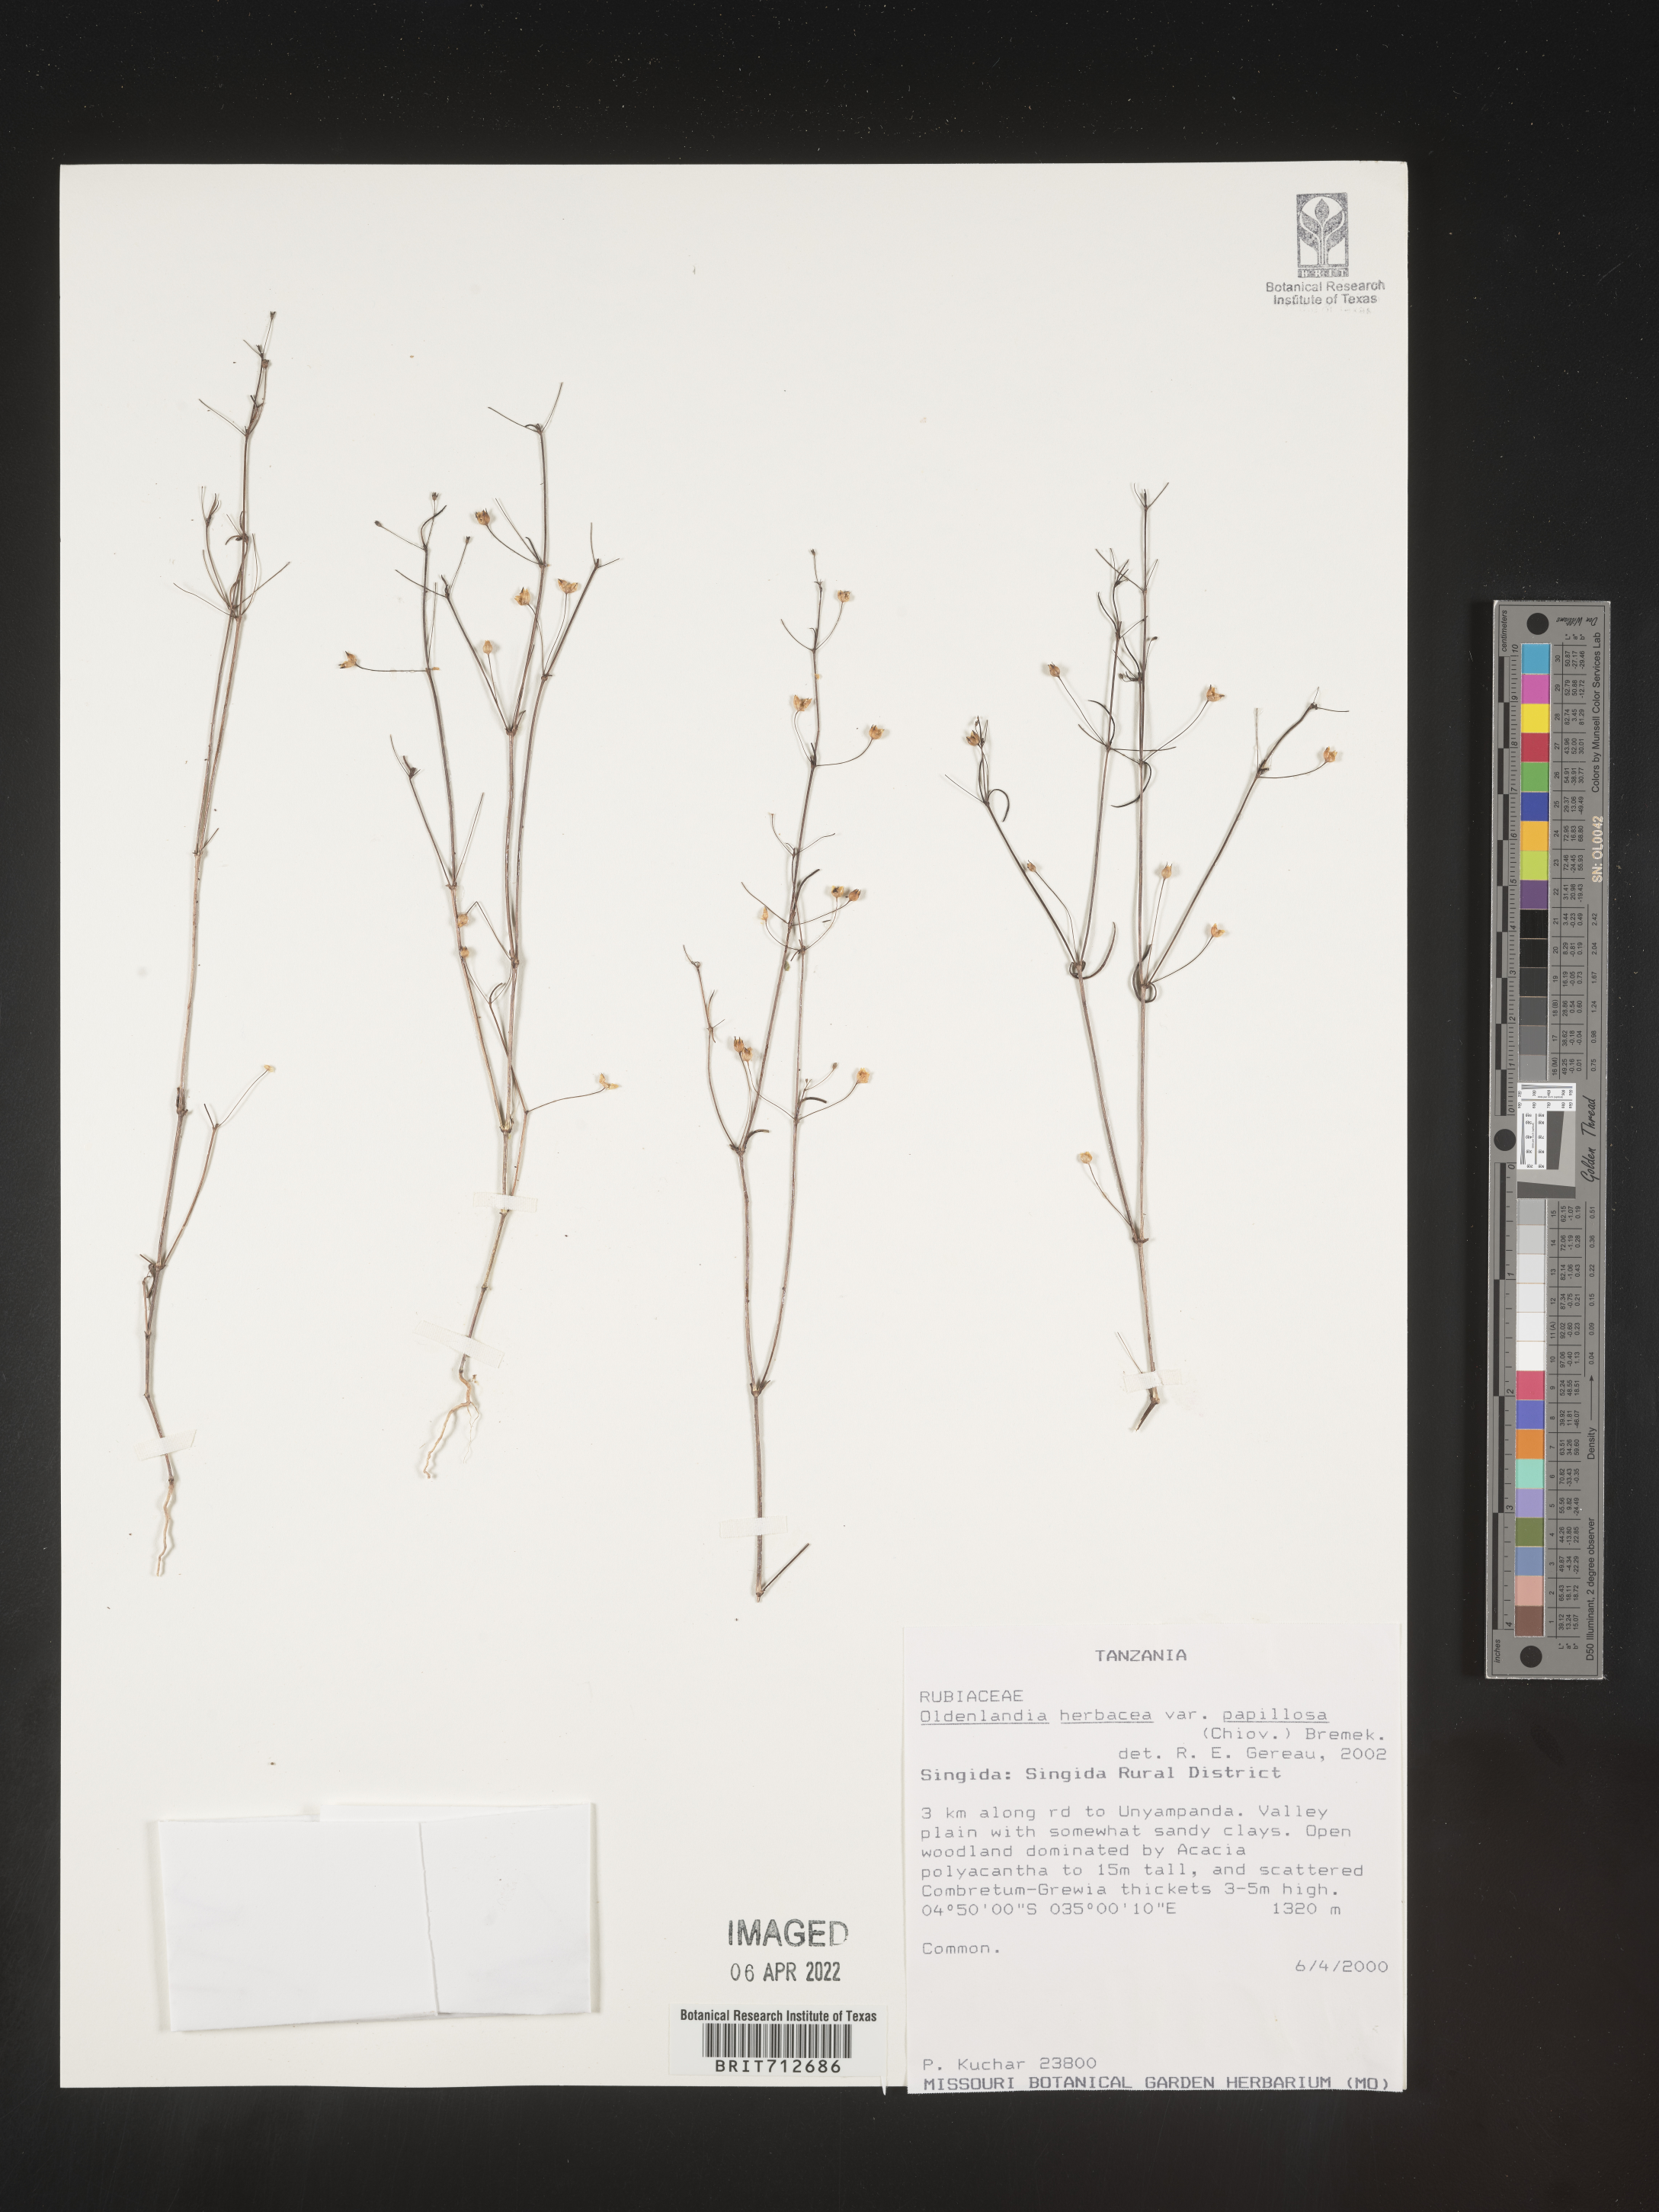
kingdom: Plantae
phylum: Tracheophyta
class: Magnoliopsida
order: Gentianales
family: Rubiaceae
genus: Oldenlandia
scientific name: Oldenlandia
